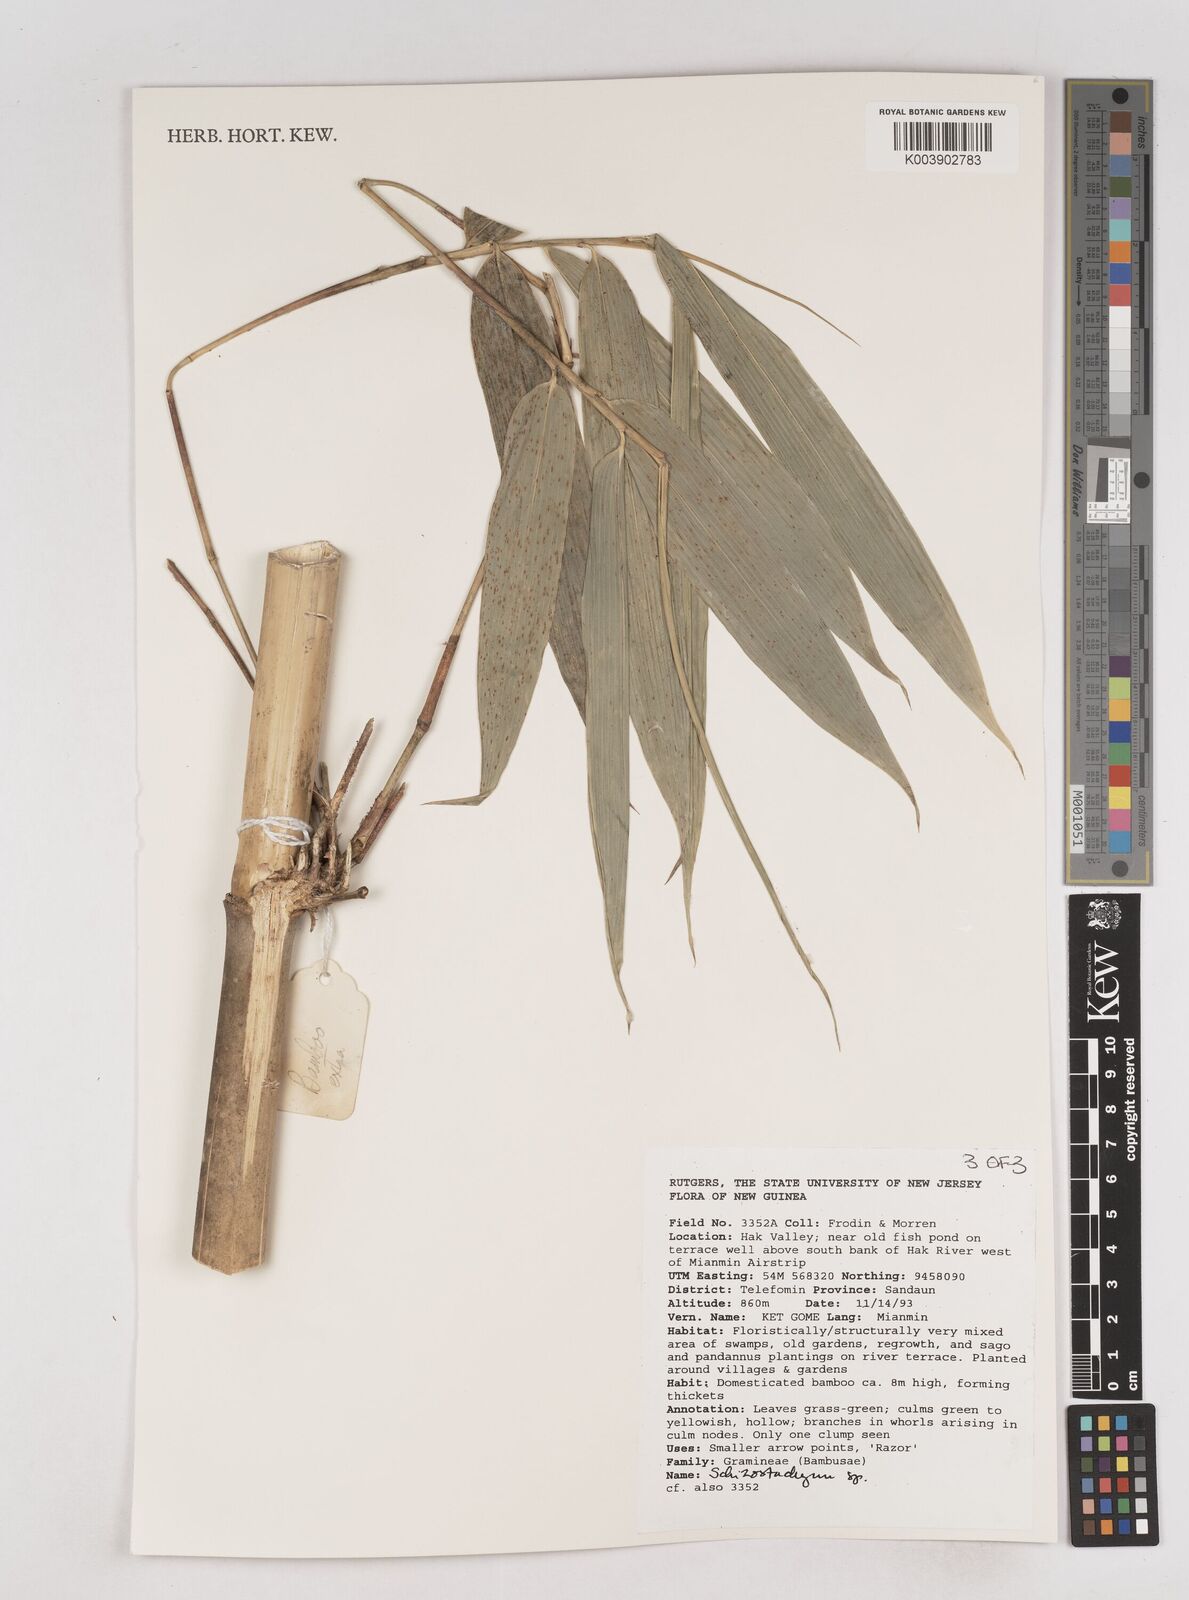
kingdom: Plantae
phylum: Tracheophyta
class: Liliopsida
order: Poales
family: Poaceae
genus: Schizostachyum
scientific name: Schizostachyum
